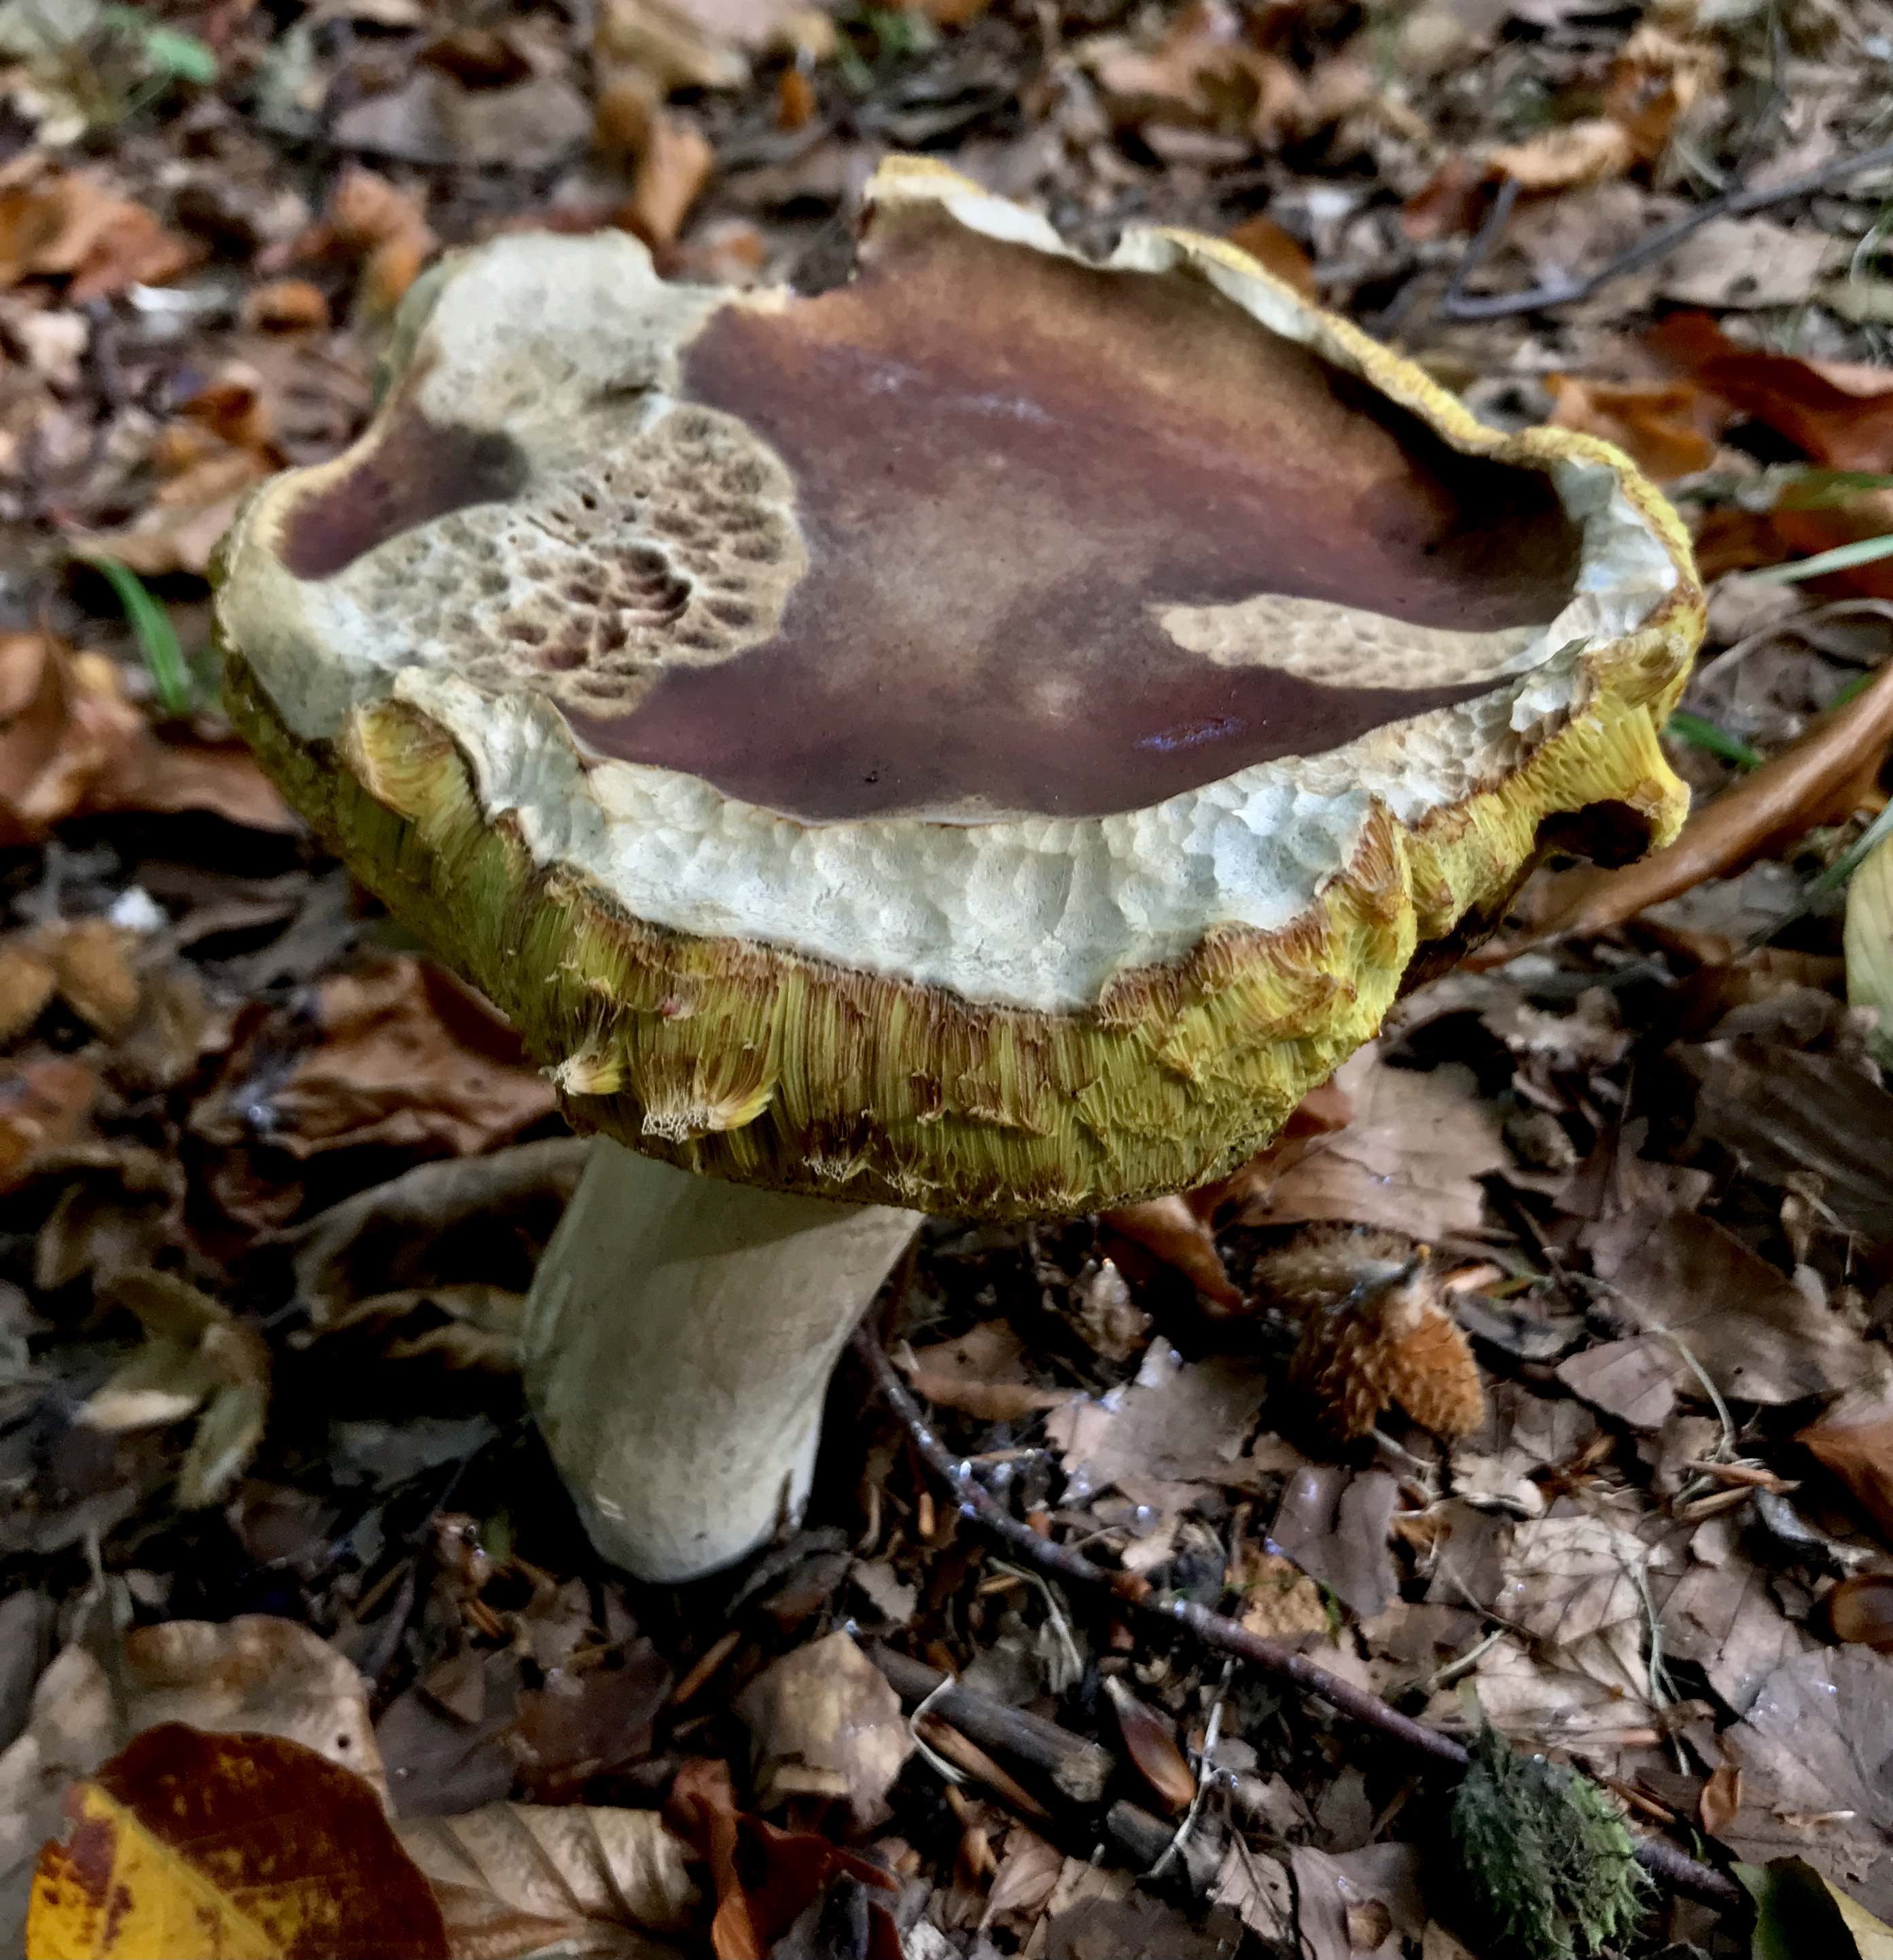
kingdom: Fungi
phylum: Basidiomycota
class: Agaricomycetes
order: Boletales
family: Boletaceae
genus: Boletus
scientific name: Boletus edulis
